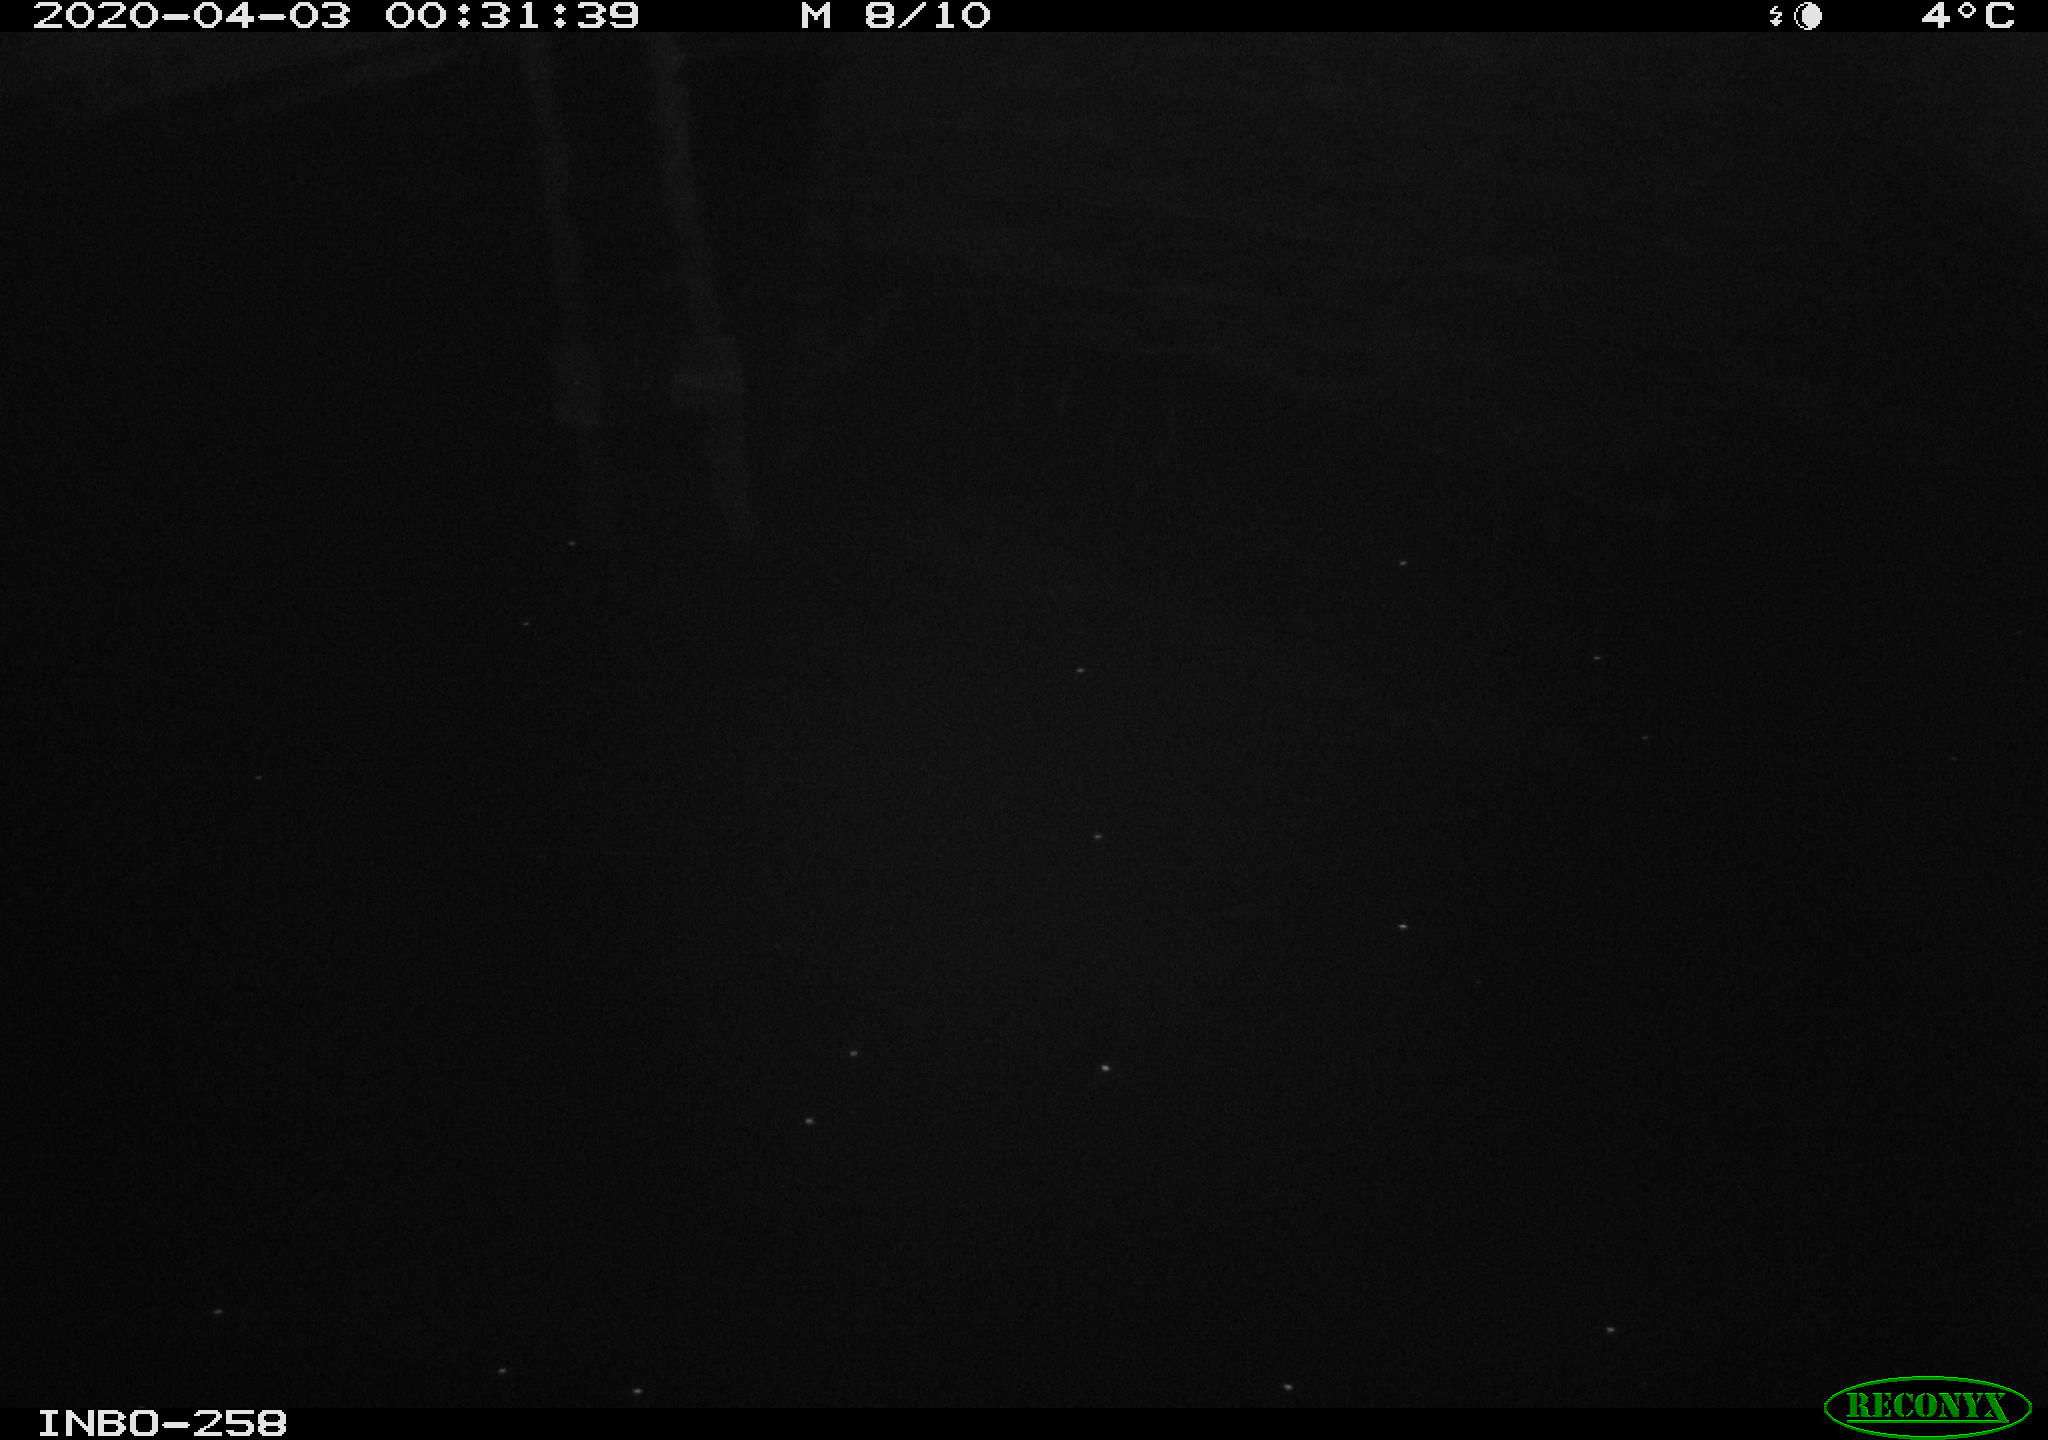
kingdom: Animalia
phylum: Chordata
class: Aves
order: Anseriformes
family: Anatidae
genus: Anas
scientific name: Anas platyrhynchos
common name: Mallard
